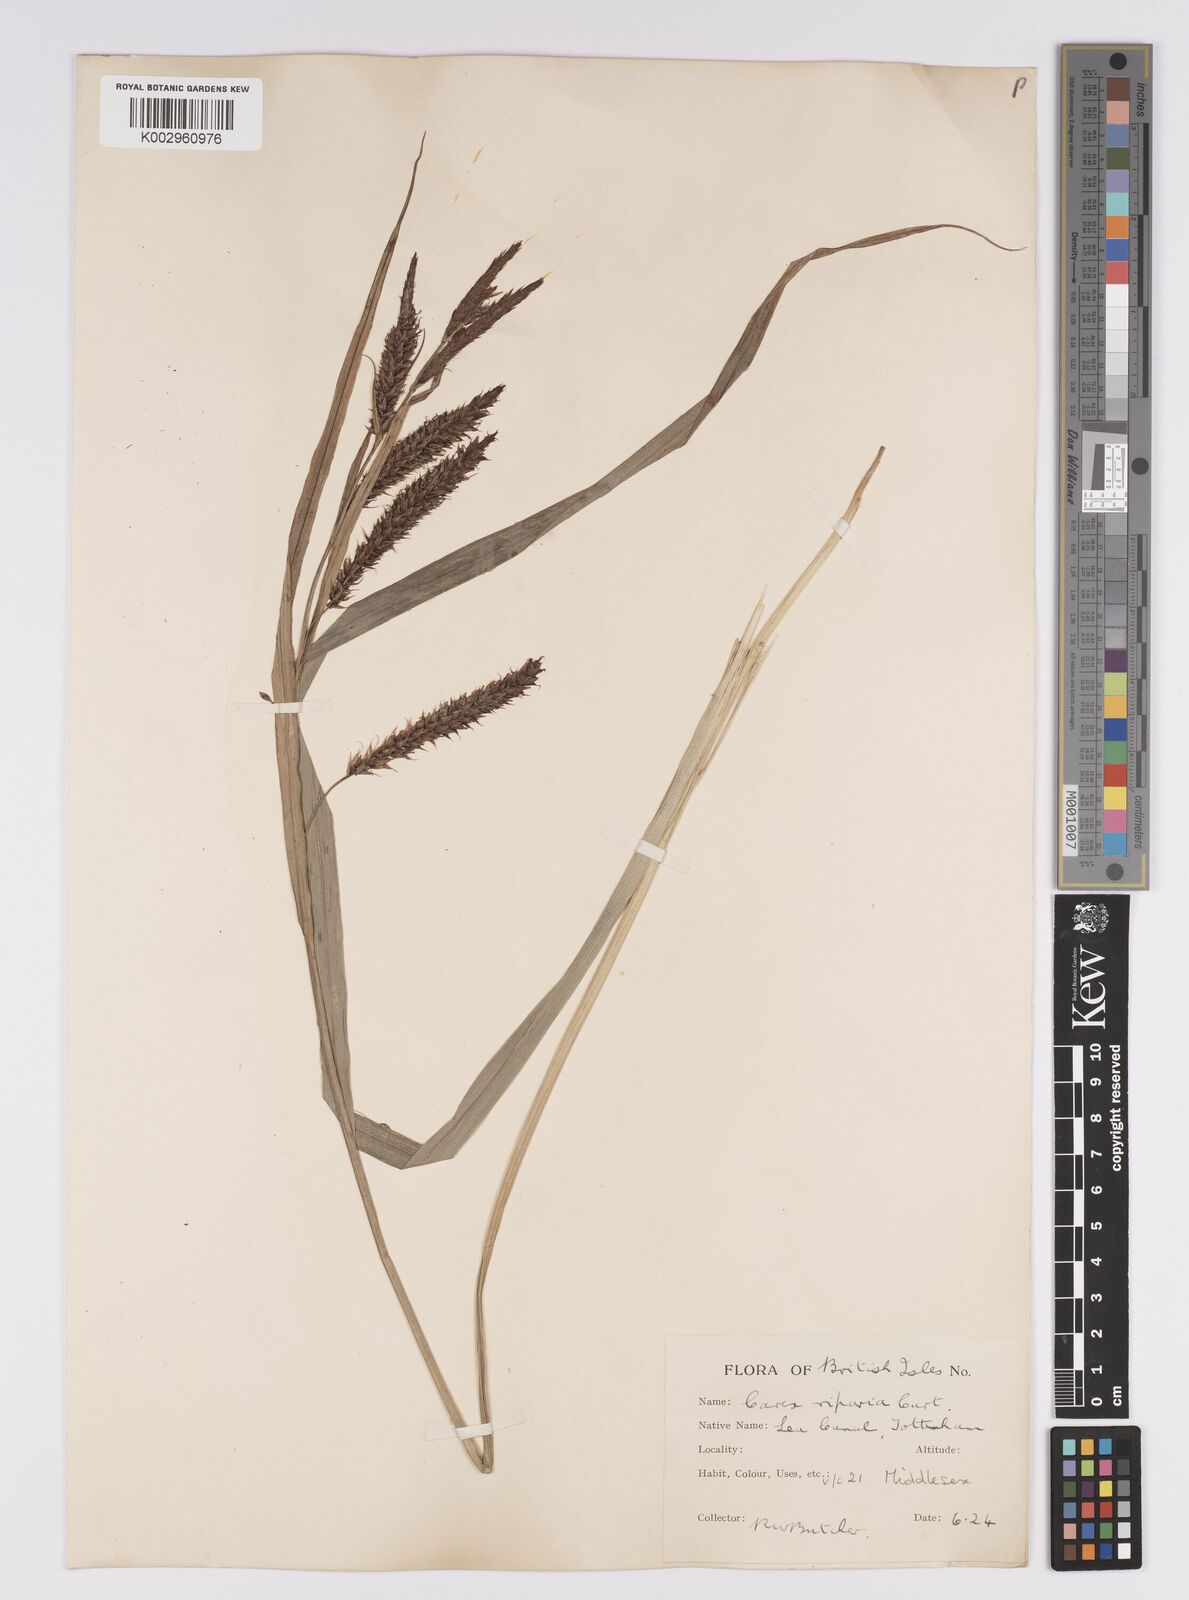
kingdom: Plantae
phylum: Tracheophyta
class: Liliopsida
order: Poales
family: Cyperaceae
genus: Carex
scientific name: Carex riparia
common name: Greater pond-sedge
